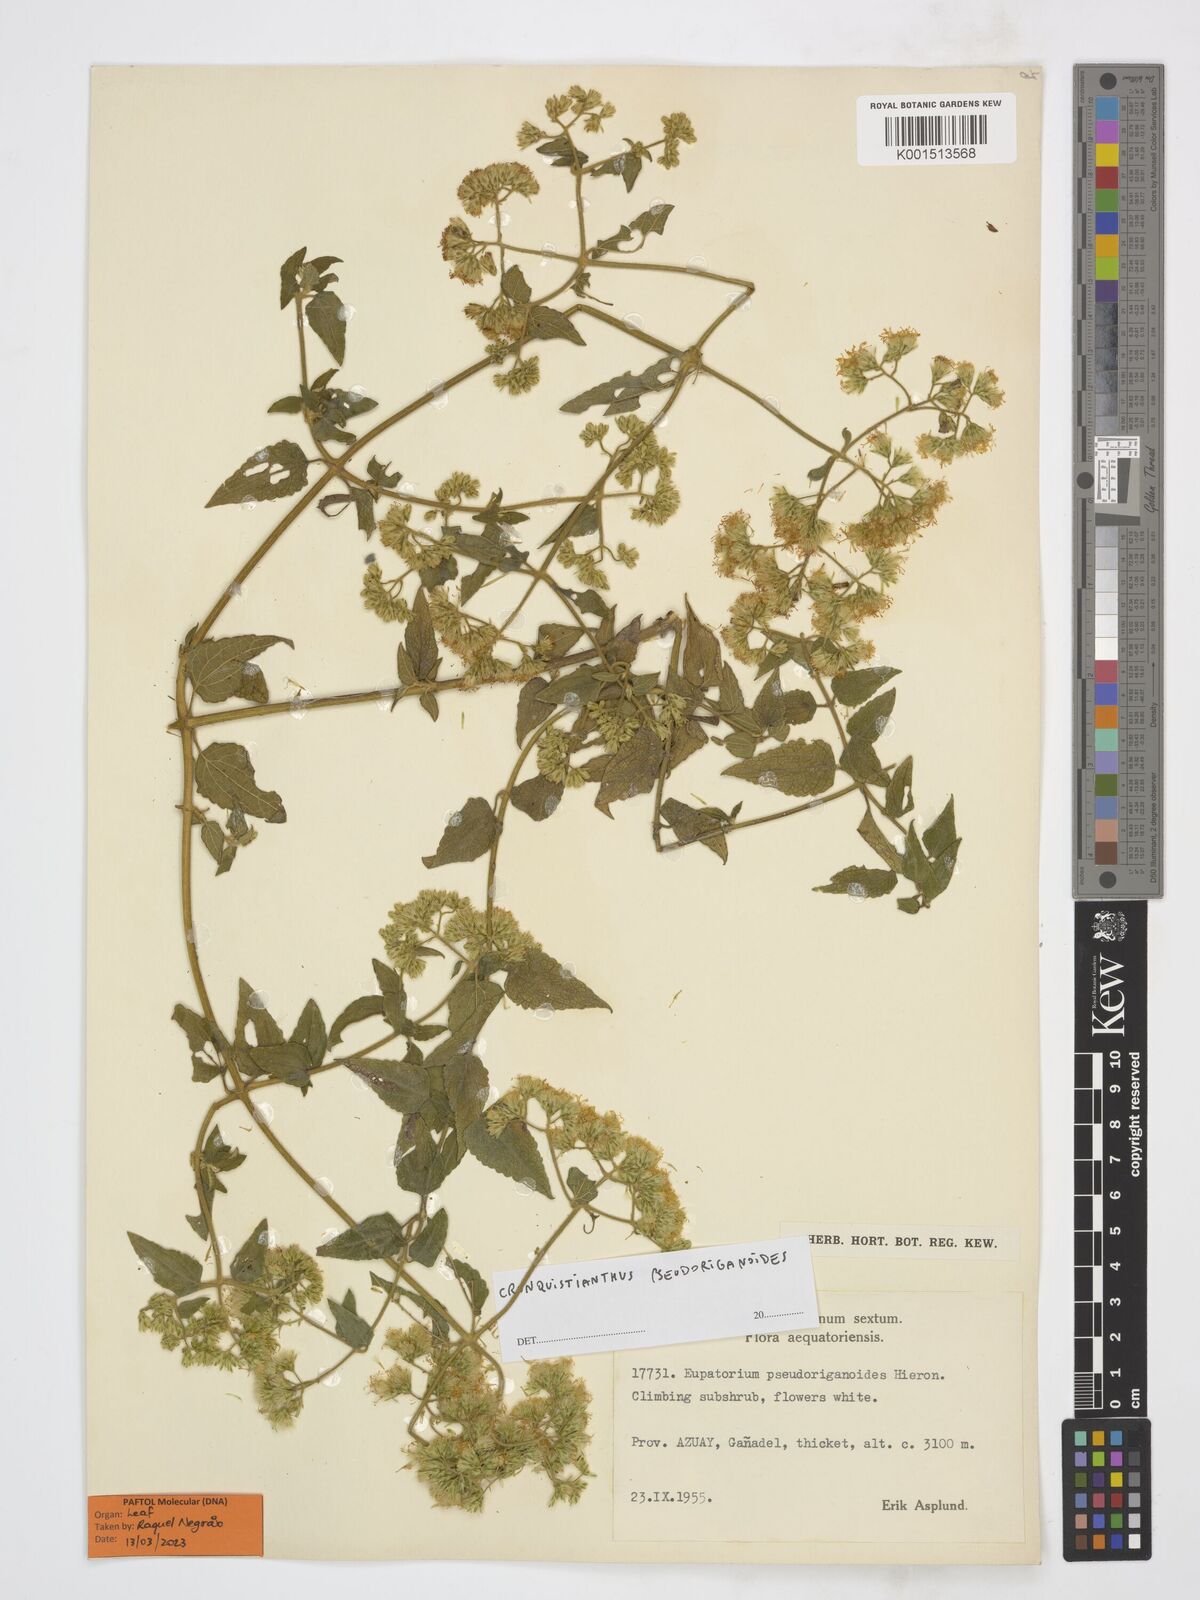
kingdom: Plantae
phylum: Tracheophyta
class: Magnoliopsida
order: Asterales
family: Asteraceae
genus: Cronquistianthus
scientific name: Cronquistianthus pseudoriganoides
